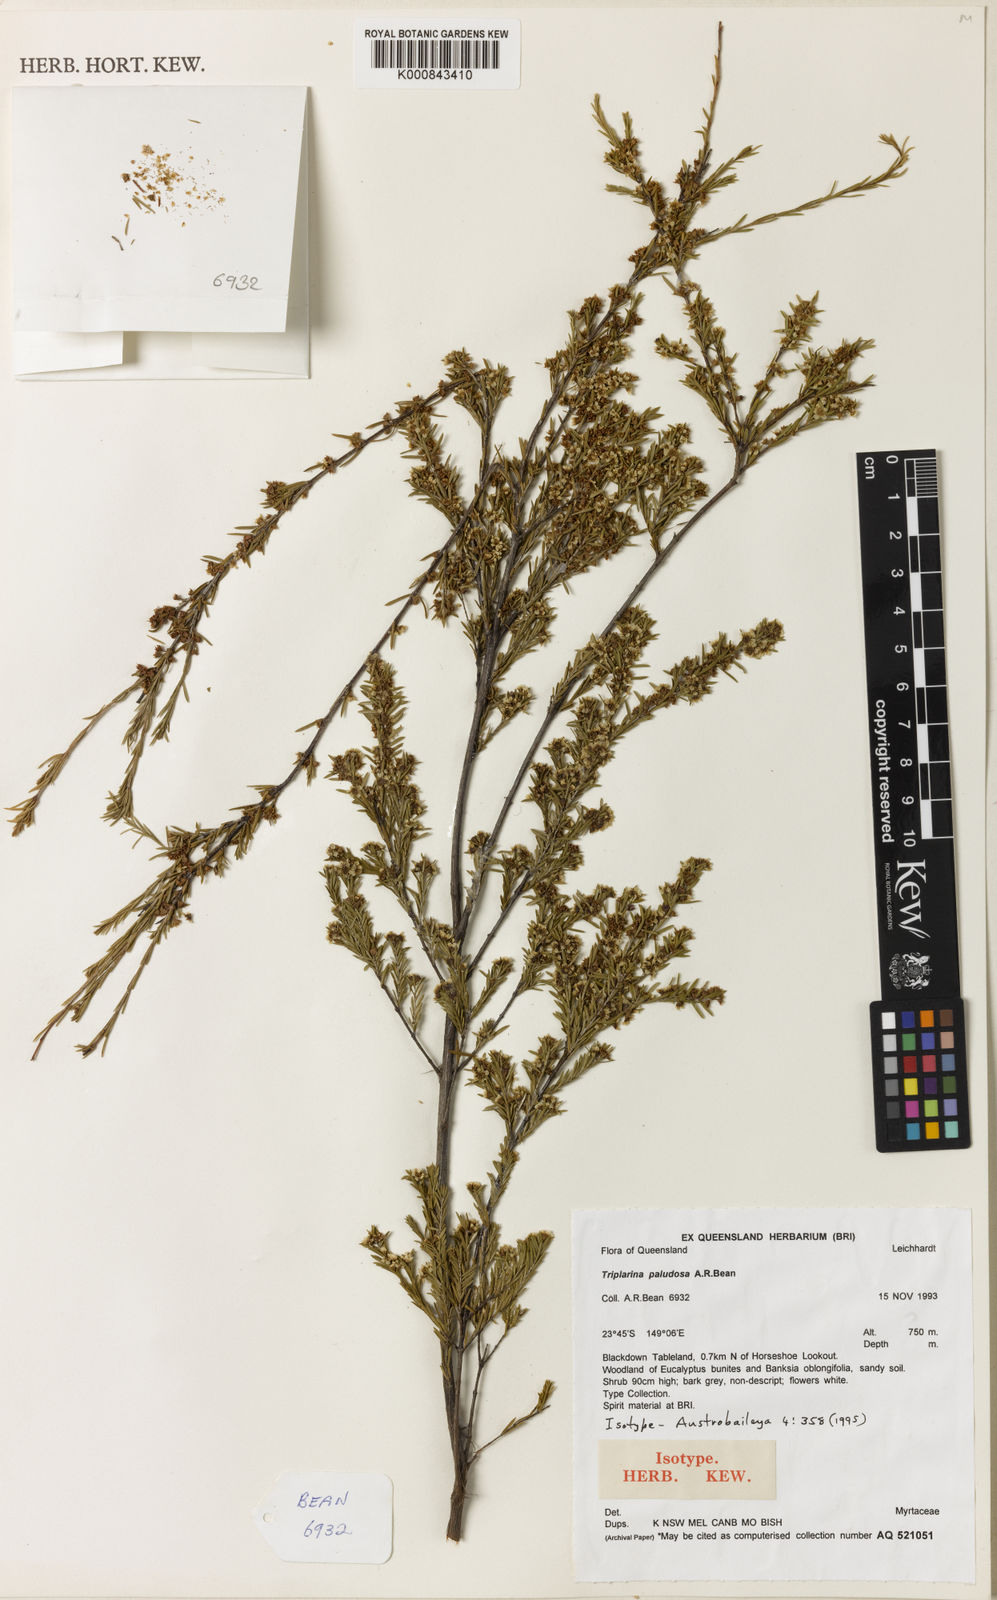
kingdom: Plantae
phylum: Tracheophyta
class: Magnoliopsida
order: Myrtales
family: Myrtaceae
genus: Triplarina
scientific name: Triplarina paludosa
